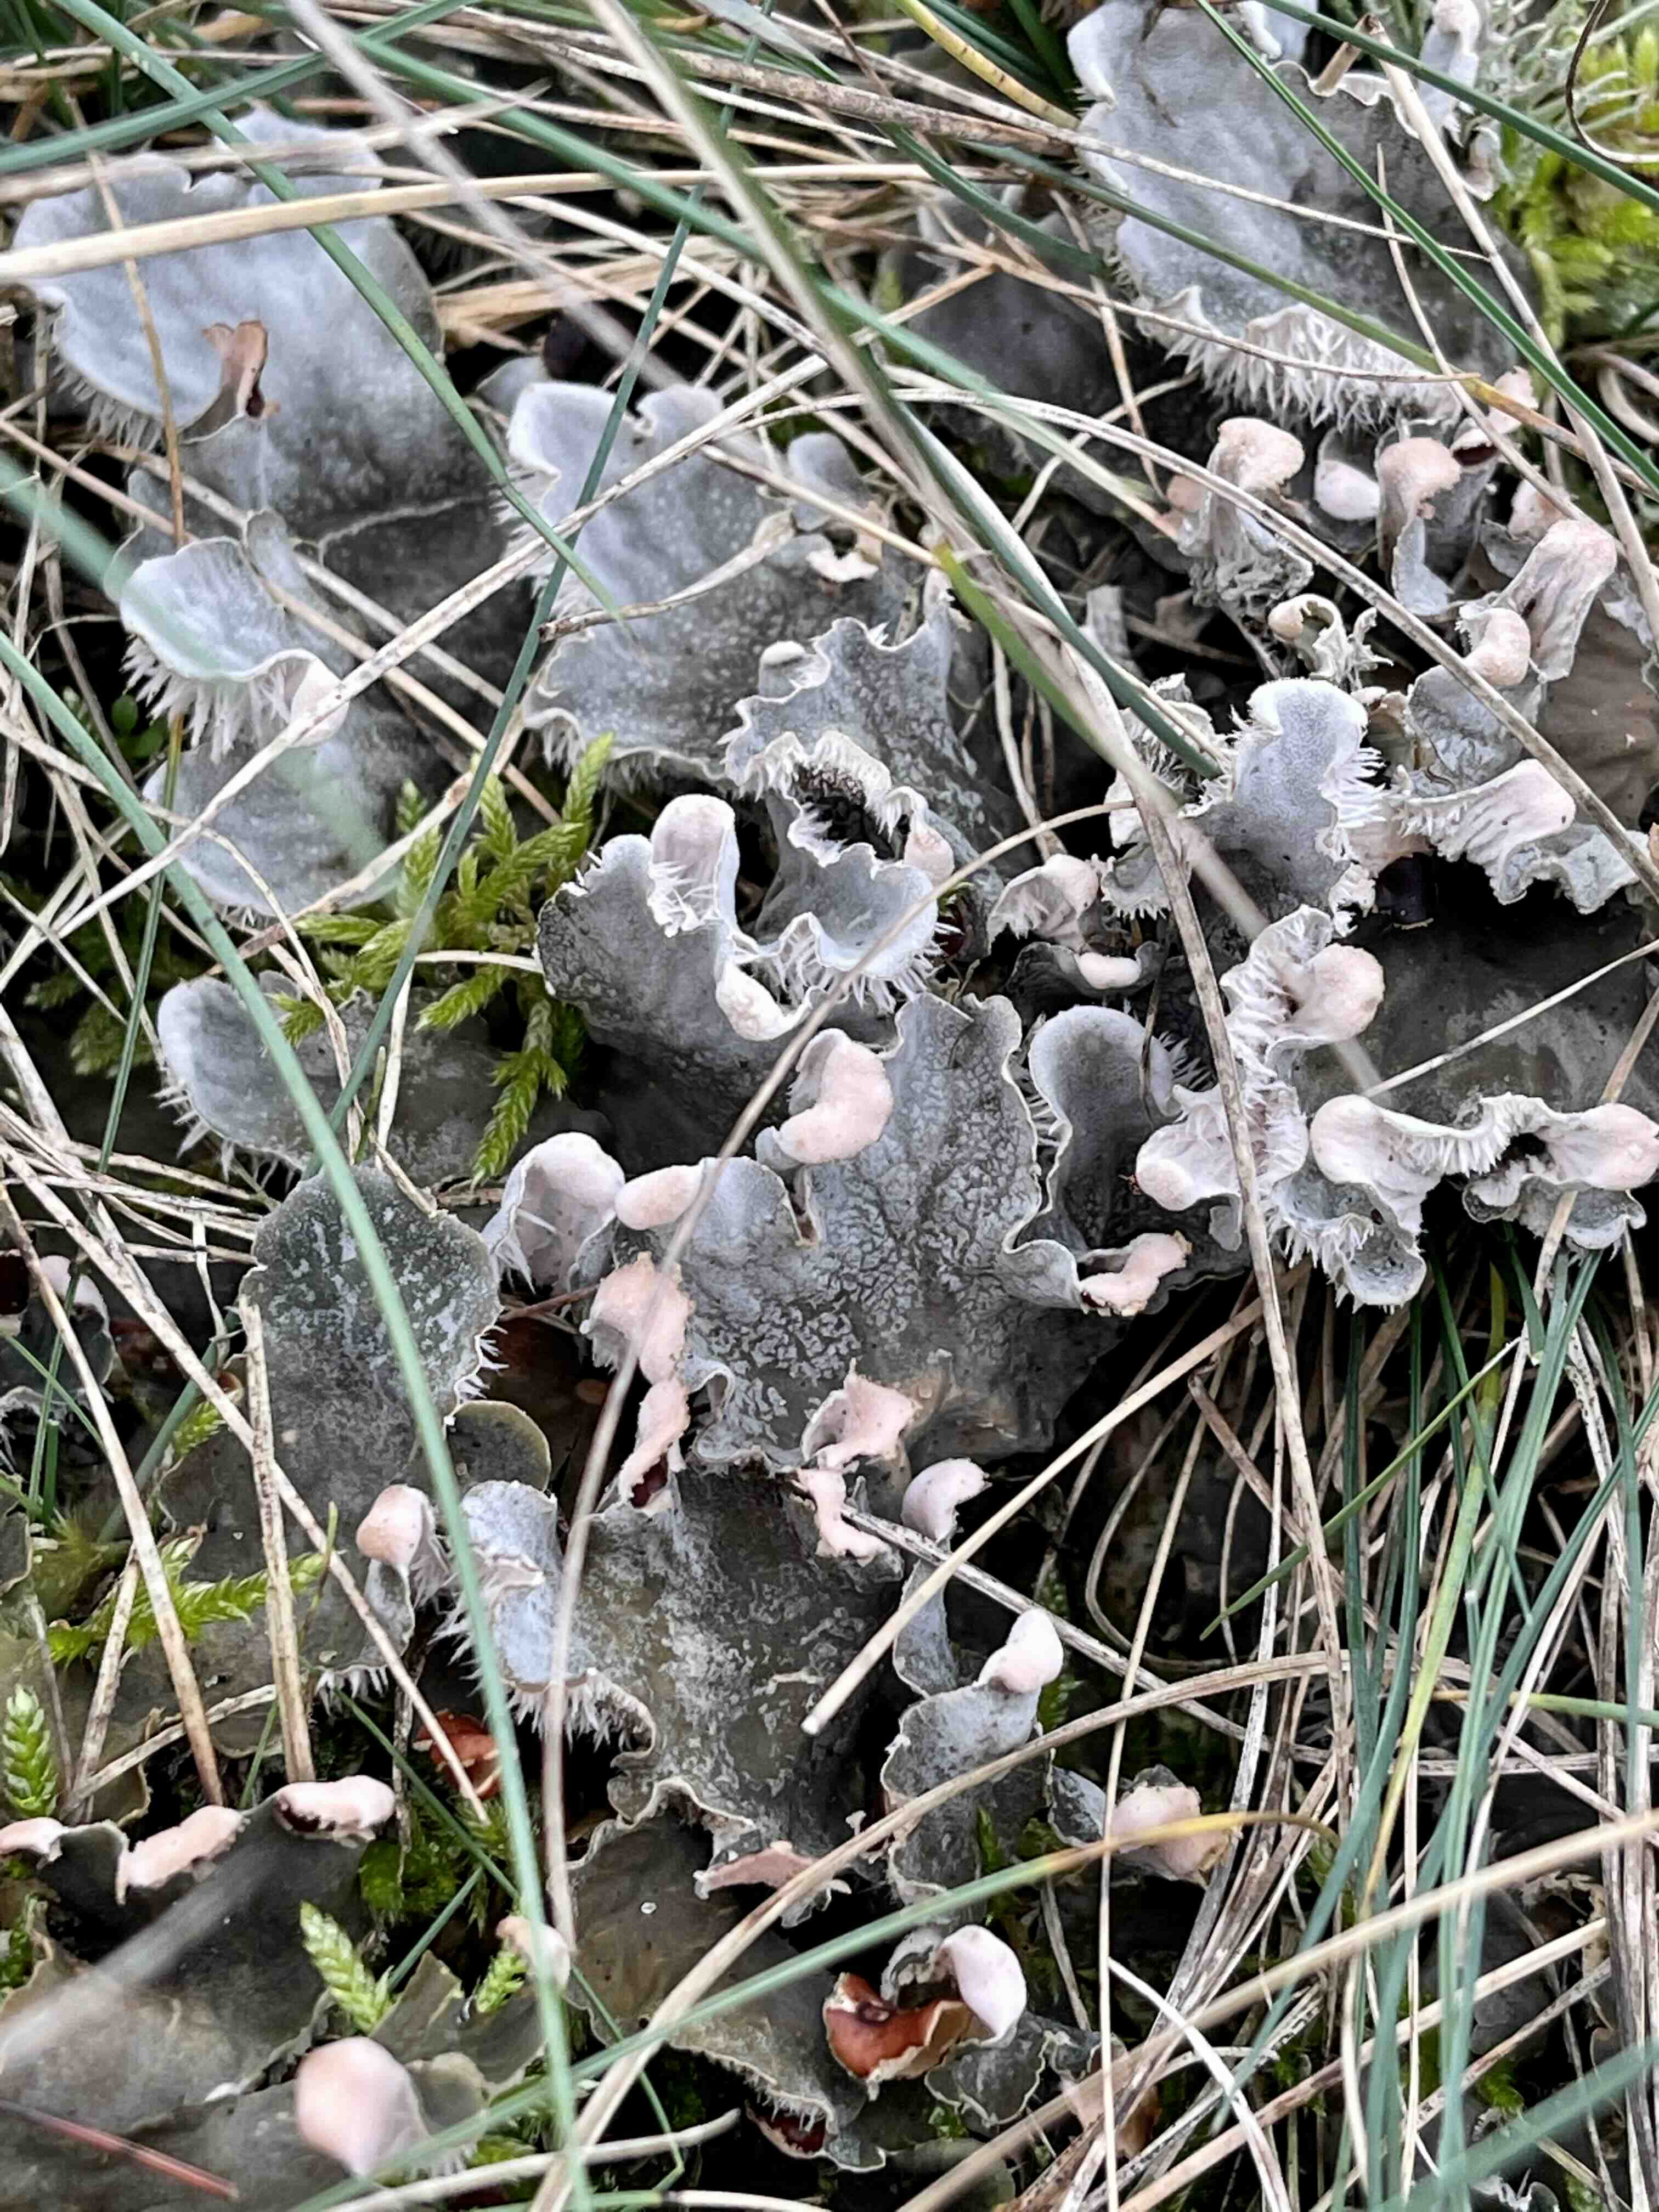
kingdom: Fungi
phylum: Ascomycota
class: Lecanoromycetes
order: Peltigerales
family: Peltigeraceae
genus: Peltigera
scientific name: Peltigera membranacea
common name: tynd skjoldlav
